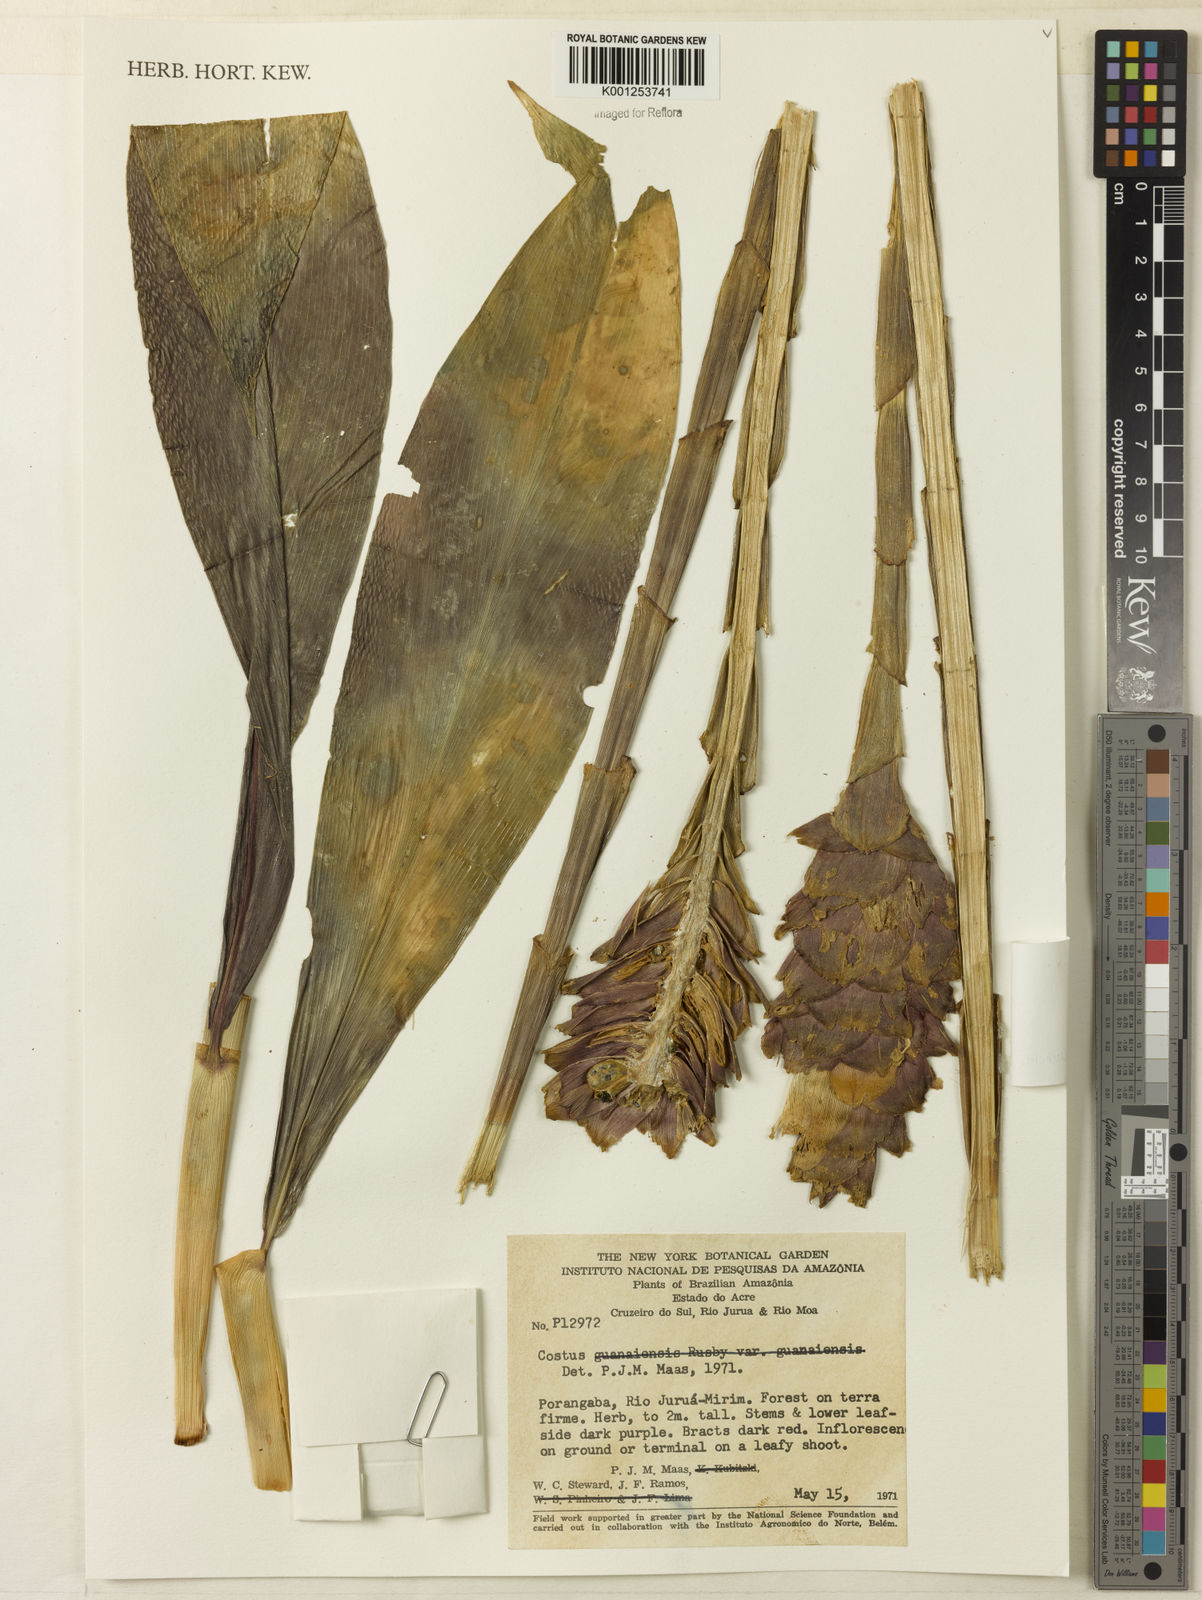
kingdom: Plantae
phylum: Tracheophyta
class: Liliopsida
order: Zingiberales
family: Costaceae
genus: Costus
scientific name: Costus erythrothyrsus
